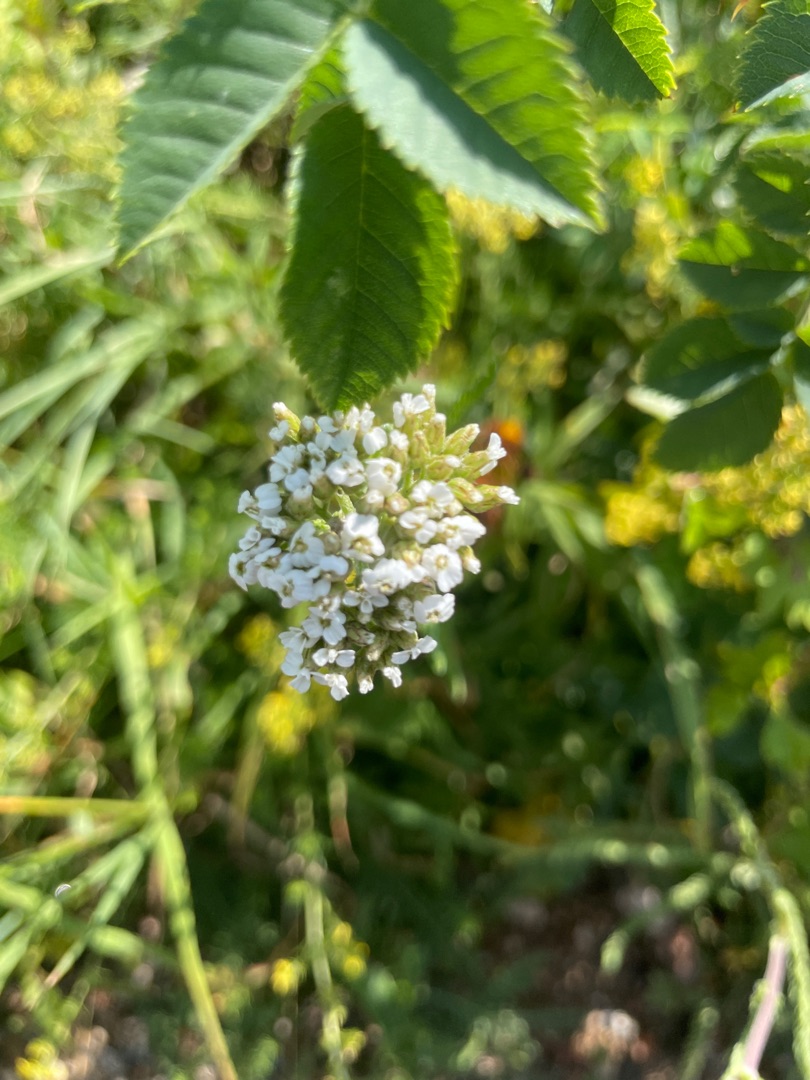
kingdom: Plantae
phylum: Tracheophyta
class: Magnoliopsida
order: Asterales
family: Asteraceae
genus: Achillea
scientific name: Achillea millefolium
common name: Almindelig røllike
